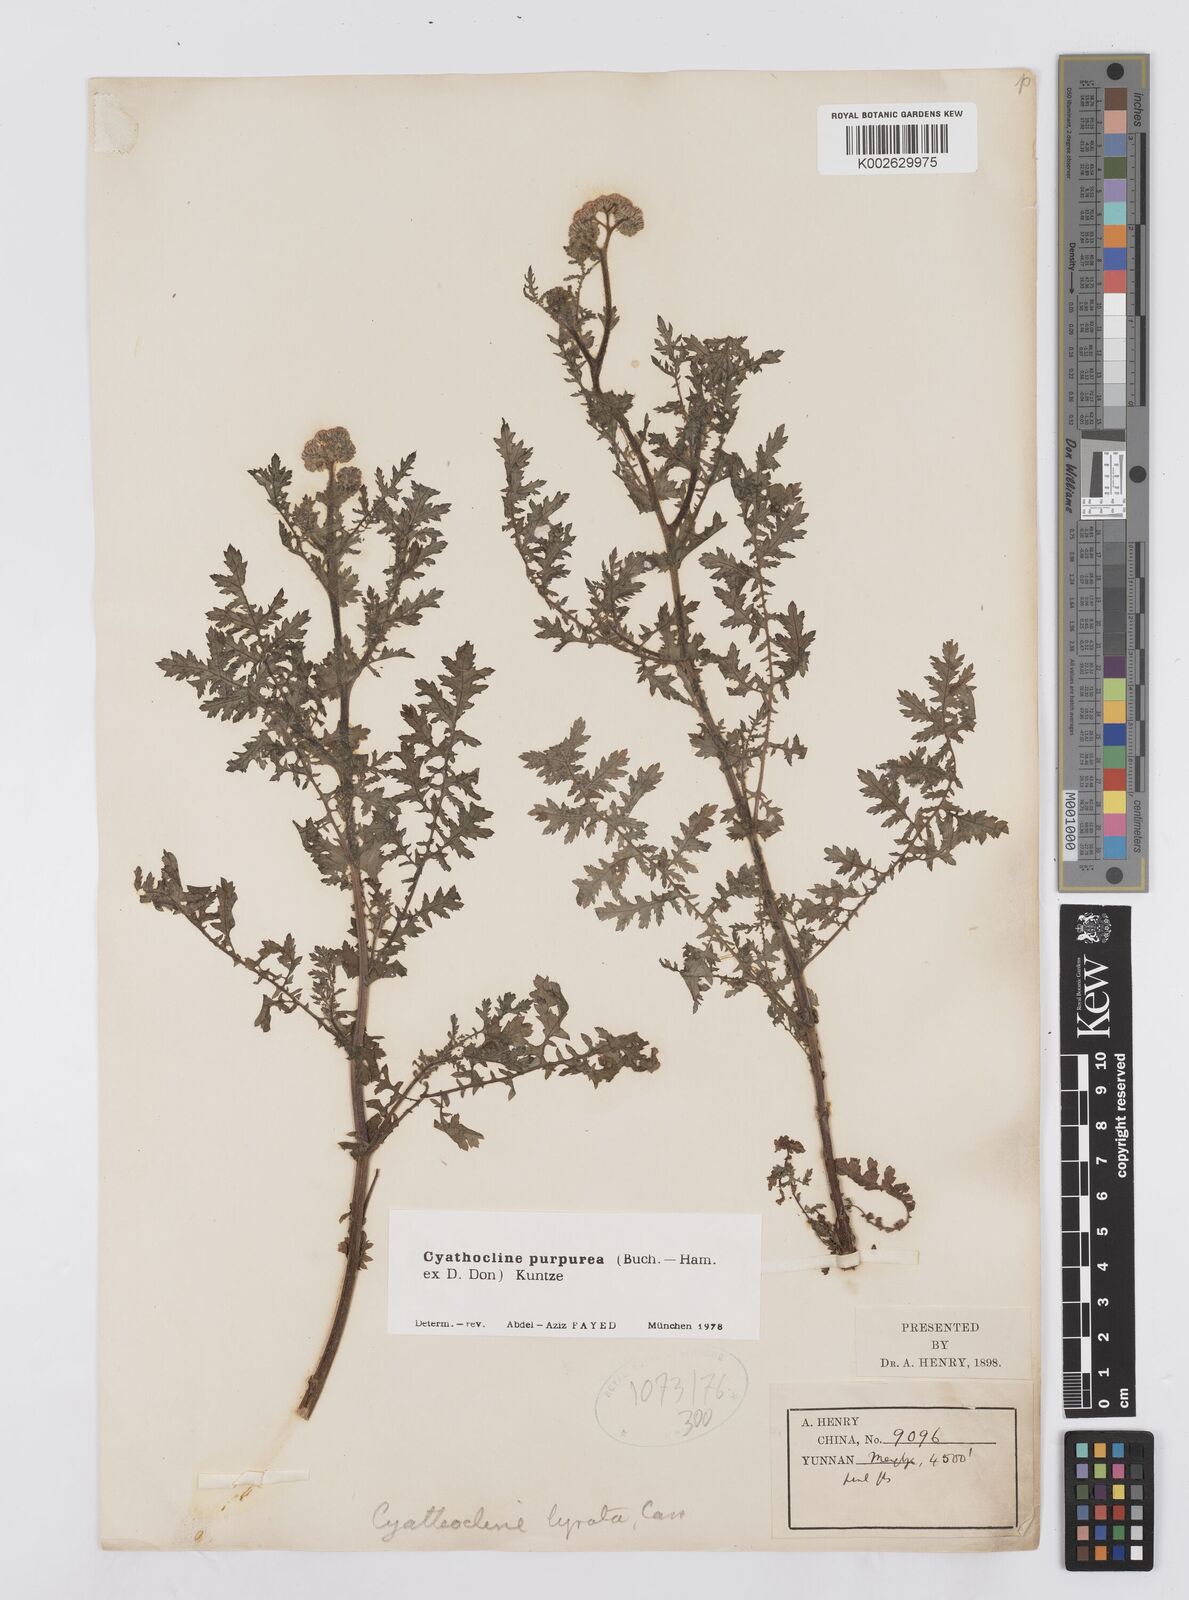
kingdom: Plantae
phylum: Tracheophyta
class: Magnoliopsida
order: Asterales
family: Asteraceae
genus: Cyathocline
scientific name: Cyathocline purpurea
